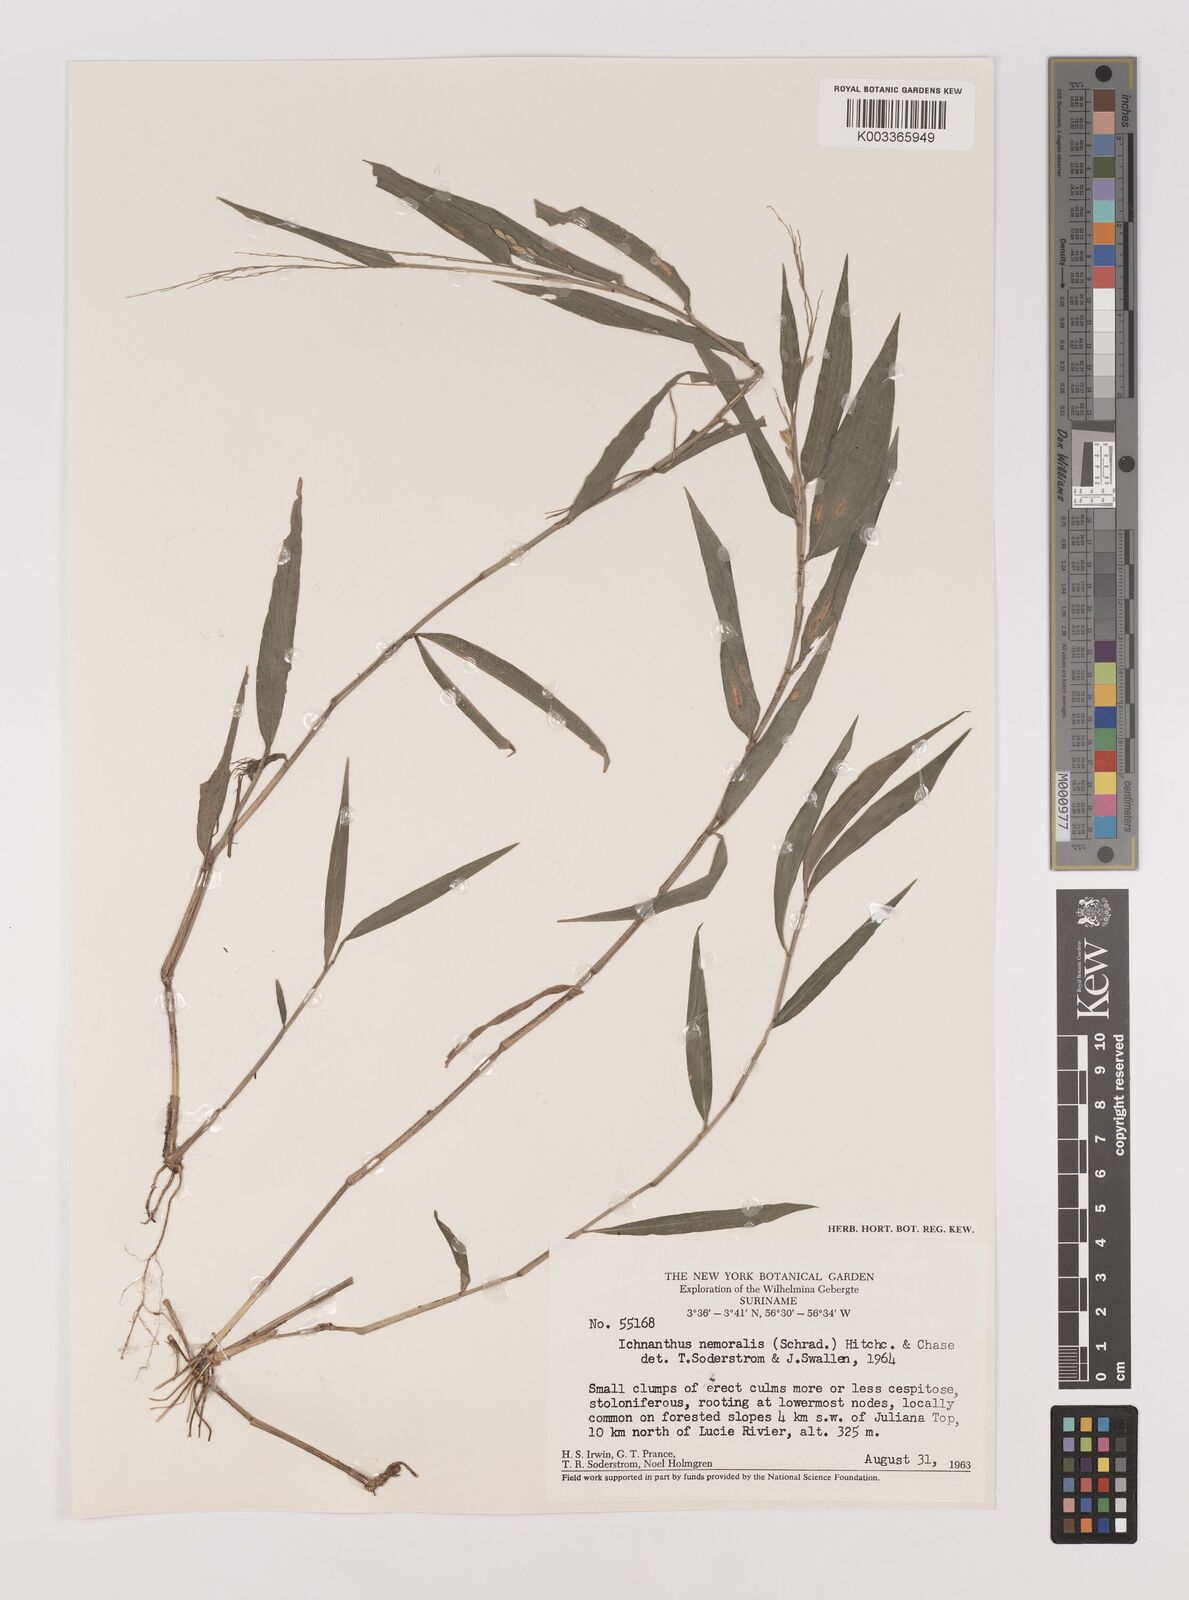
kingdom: Plantae
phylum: Tracheophyta
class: Liliopsida
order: Poales
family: Poaceae
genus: Ichnanthus
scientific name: Ichnanthus nemoralis
